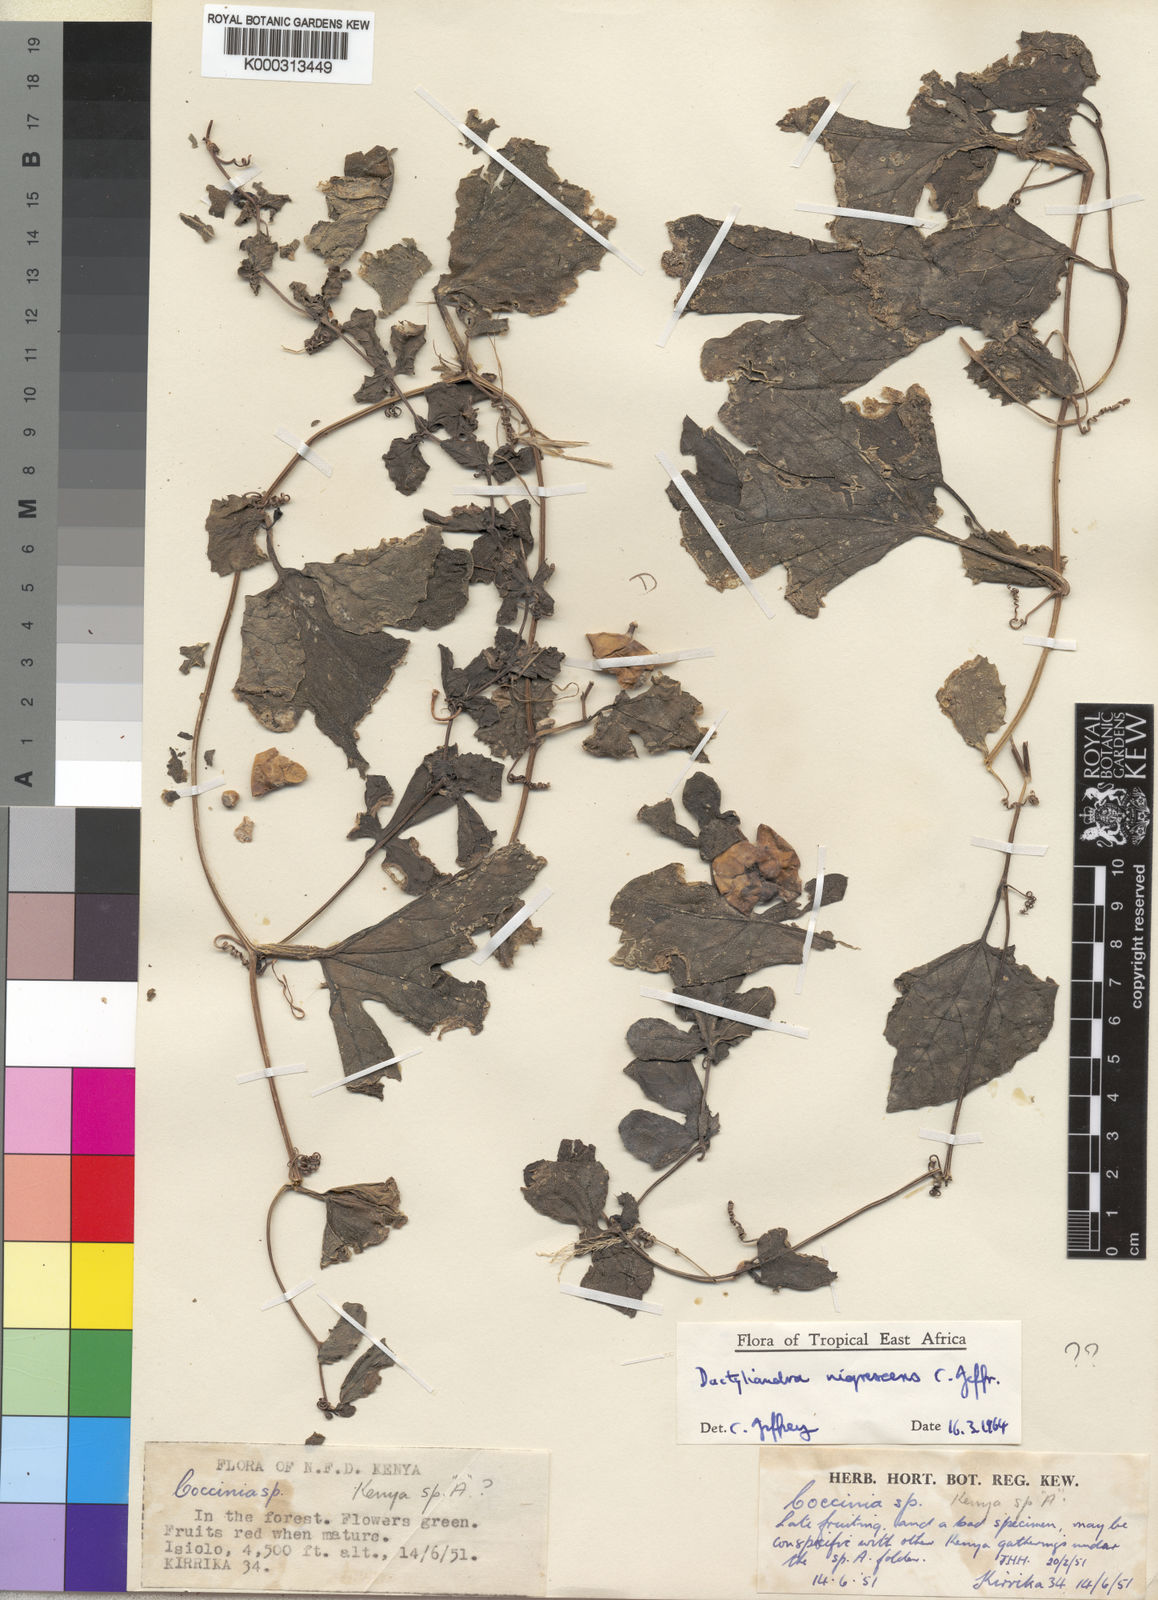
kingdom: Plantae
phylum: Tracheophyta
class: Magnoliopsida
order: Cucurbitales
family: Cucurbitaceae
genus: Dactyliandra
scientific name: Dactyliandra stefaninii
